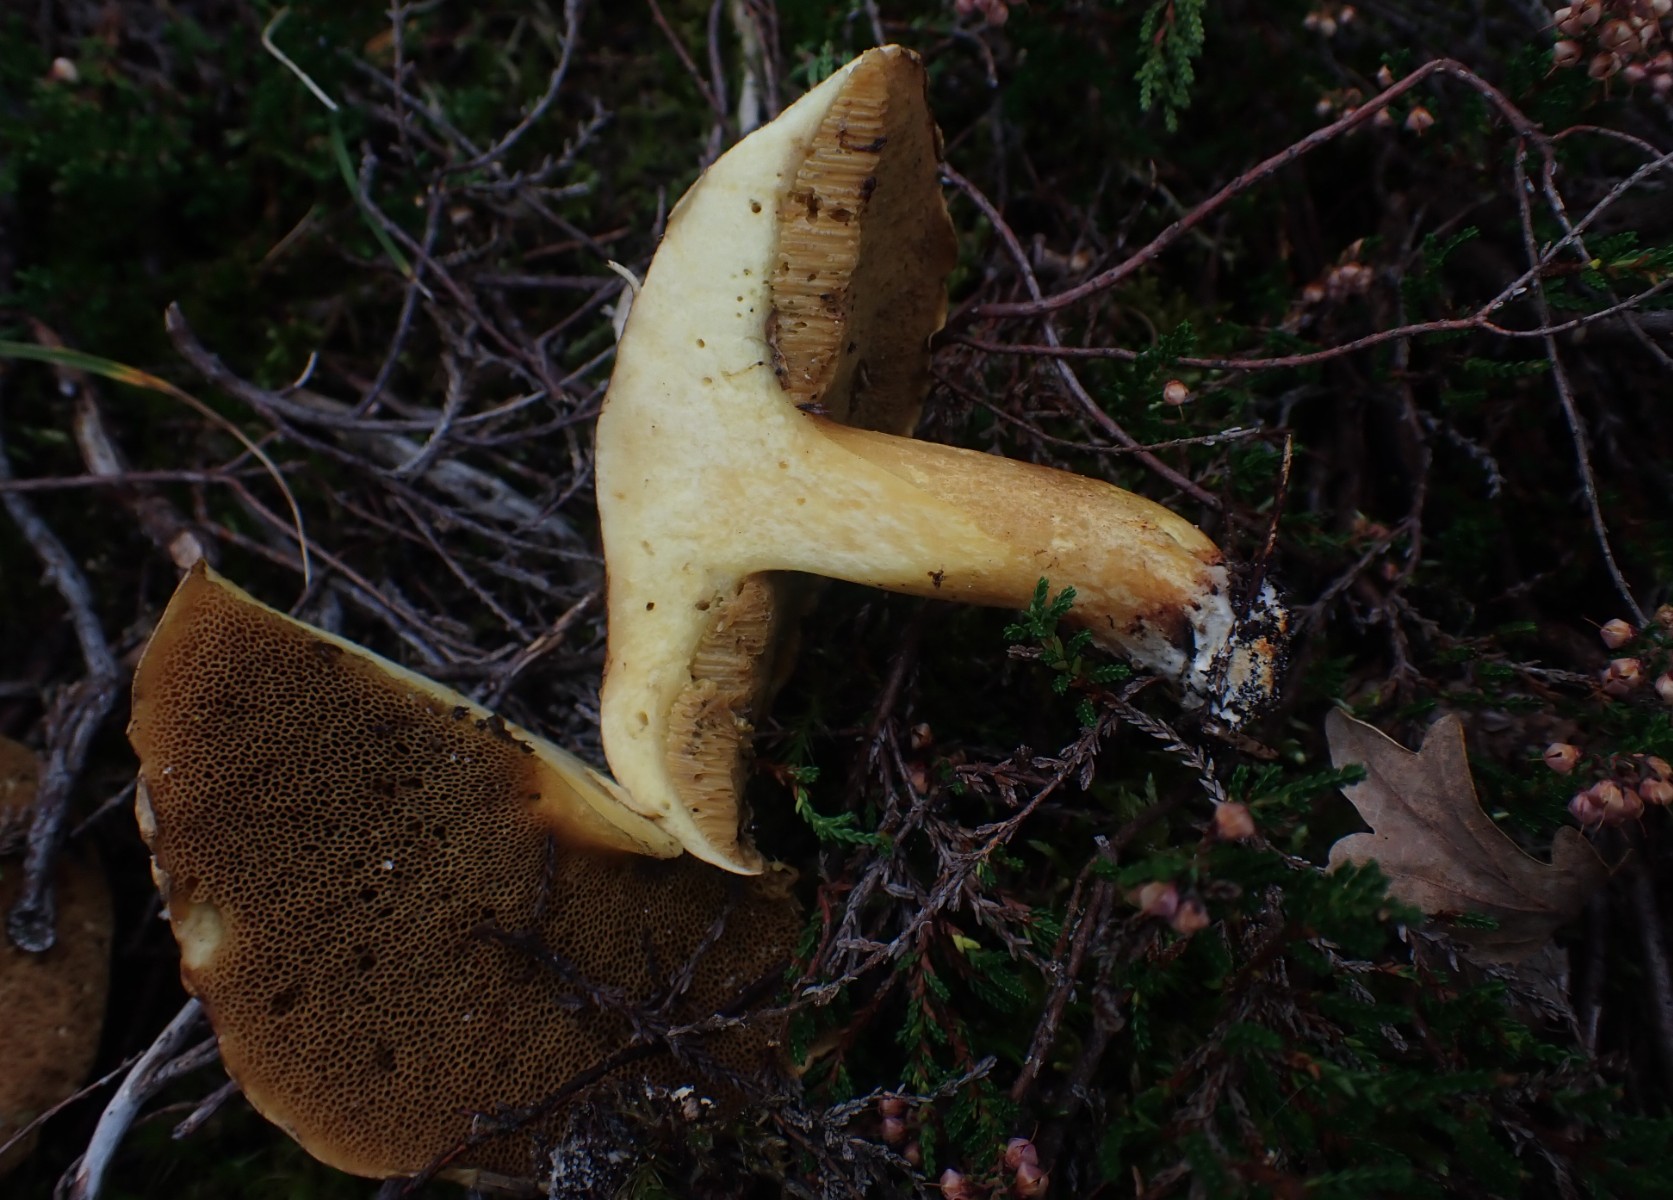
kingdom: Fungi
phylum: Basidiomycota
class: Agaricomycetes
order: Boletales
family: Suillaceae
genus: Suillus
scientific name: Suillus variegatus
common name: broget slimrørhat
